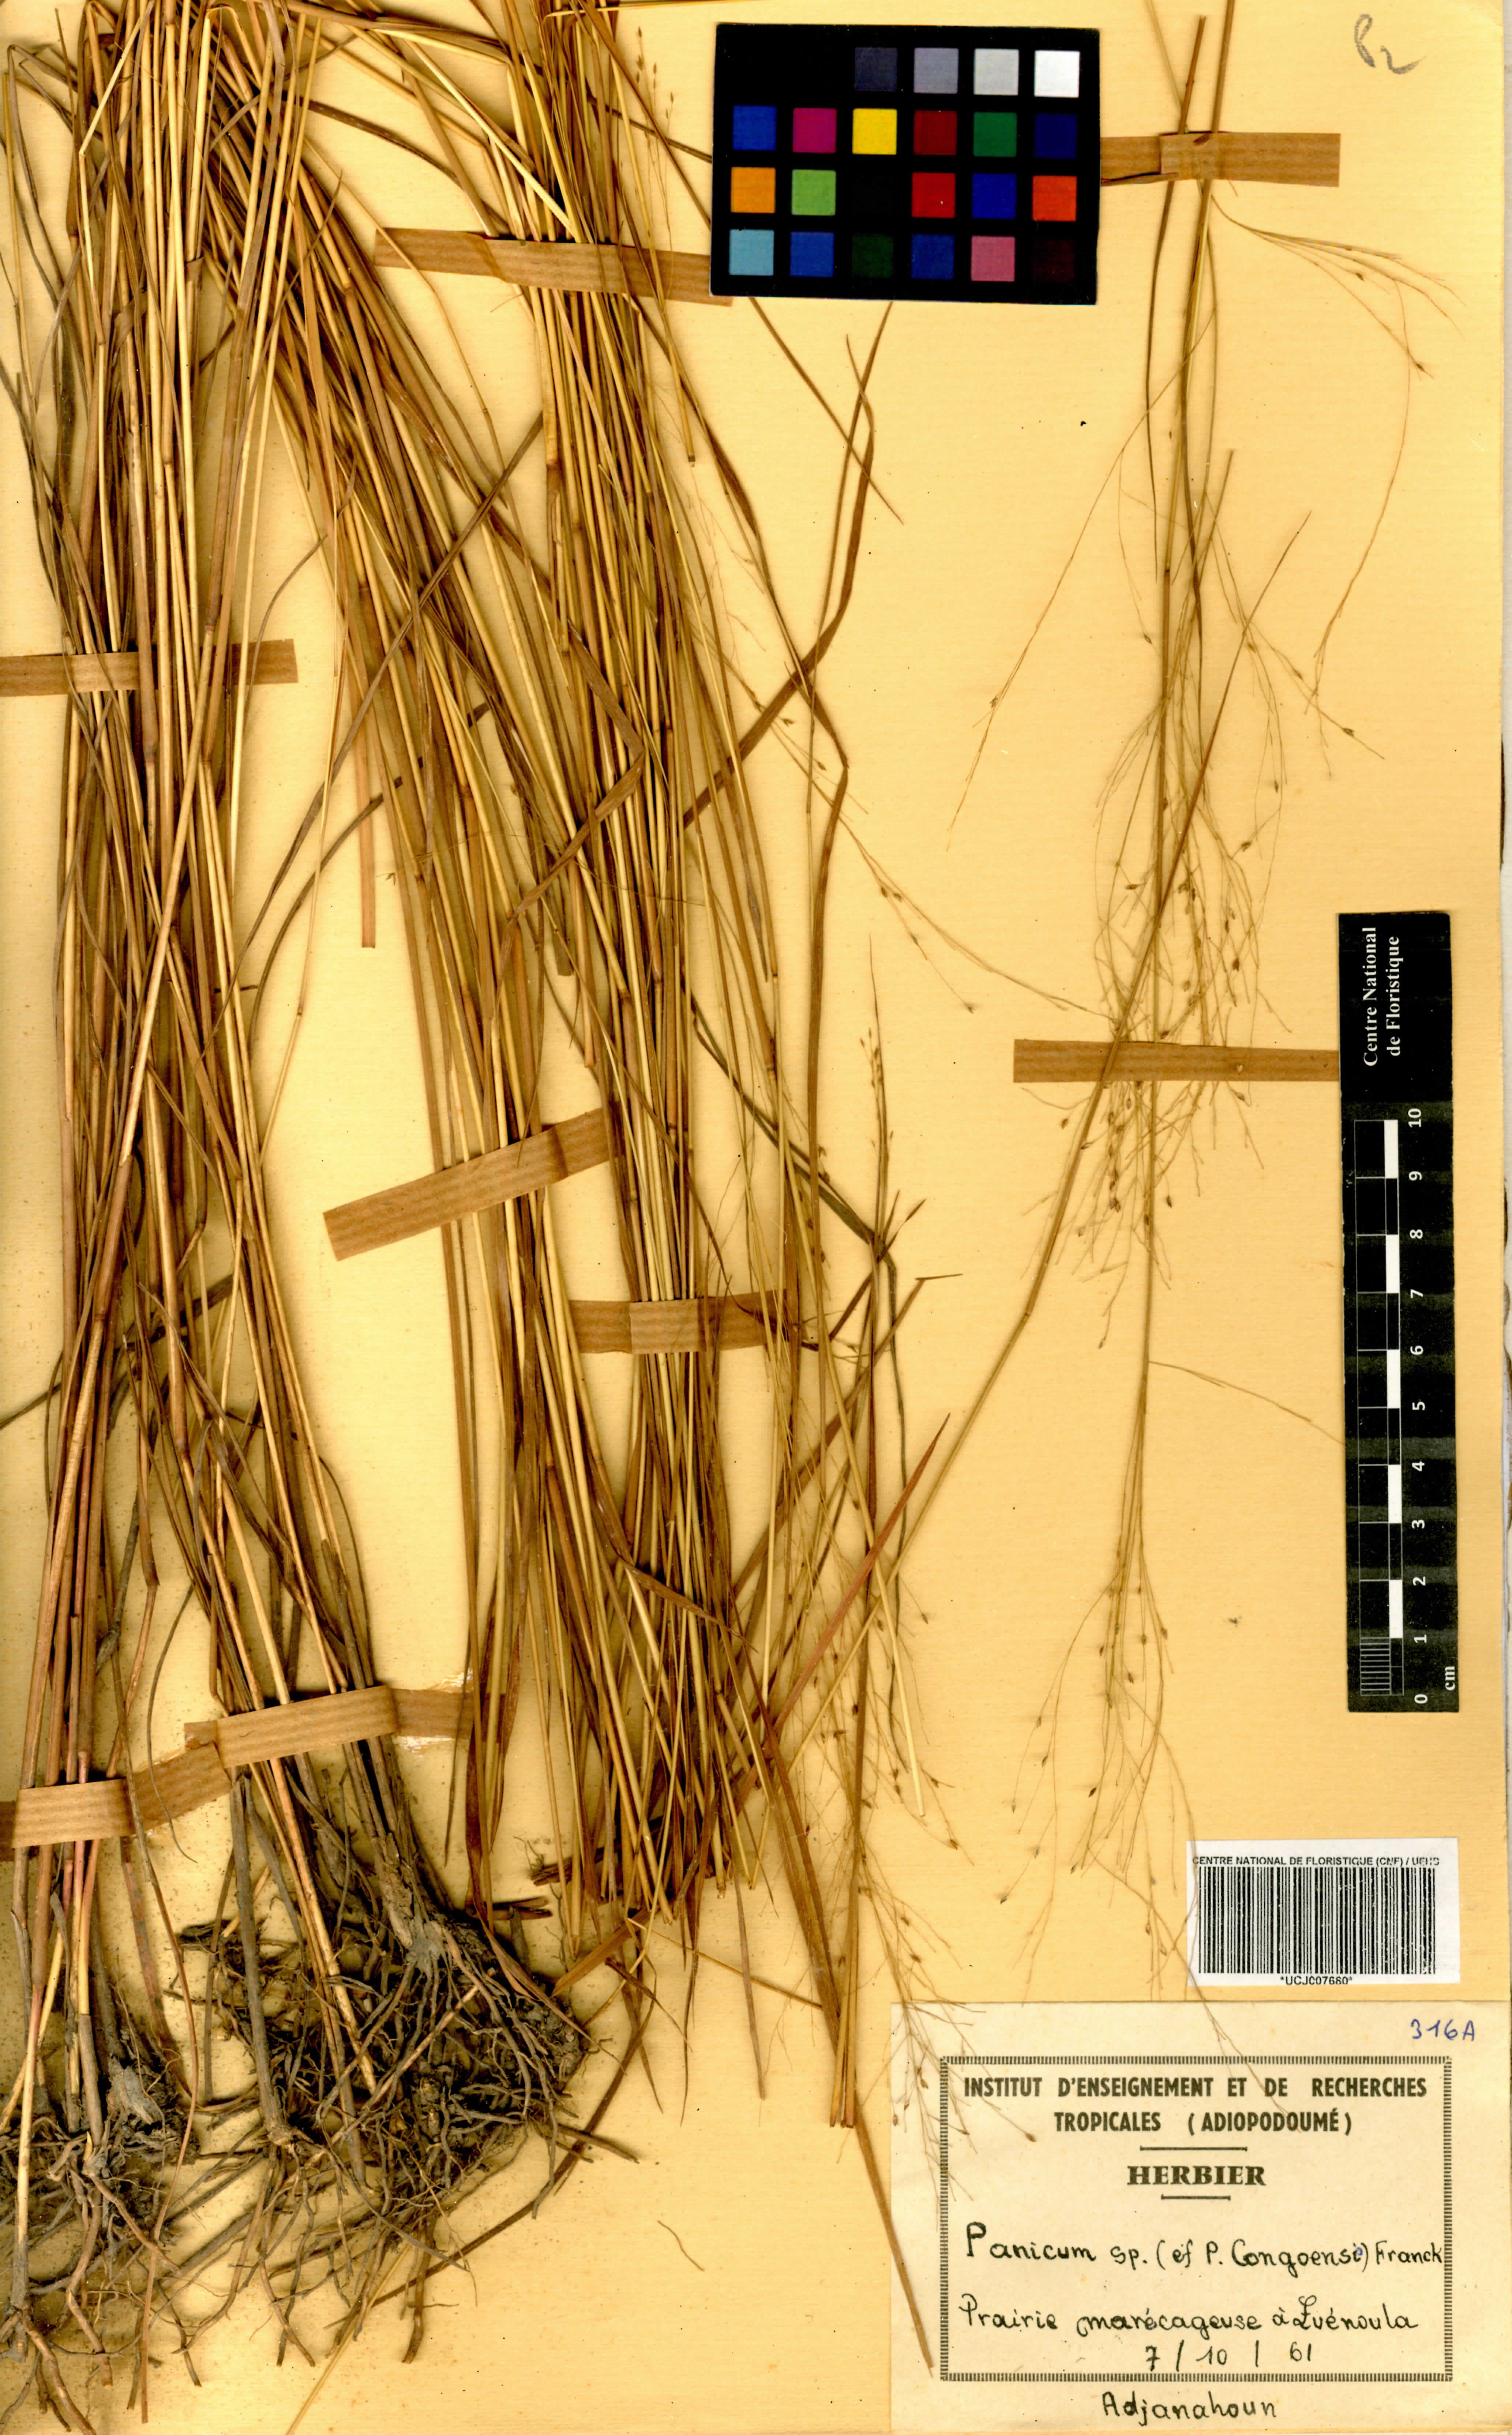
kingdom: Plantae
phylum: Tracheophyta
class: Liliopsida
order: Poales
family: Poaceae
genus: Panicum
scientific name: Panicum congoense
